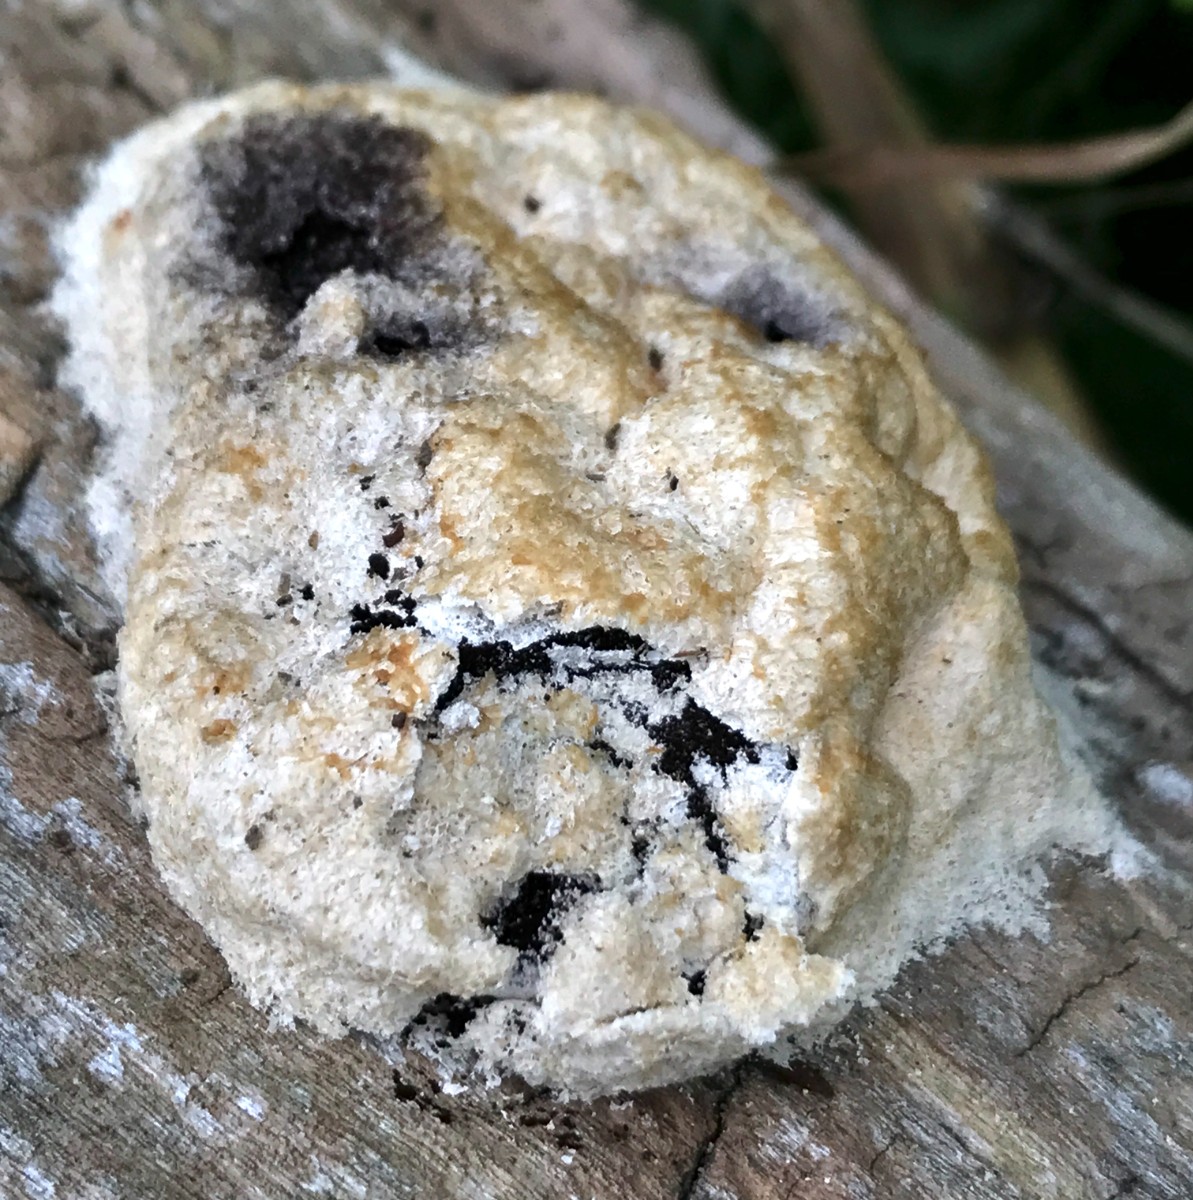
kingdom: Protozoa
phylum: Mycetozoa
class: Myxomycetes
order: Physarales
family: Physaraceae
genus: Fuligo
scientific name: Fuligo septica
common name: gul troldsmør
